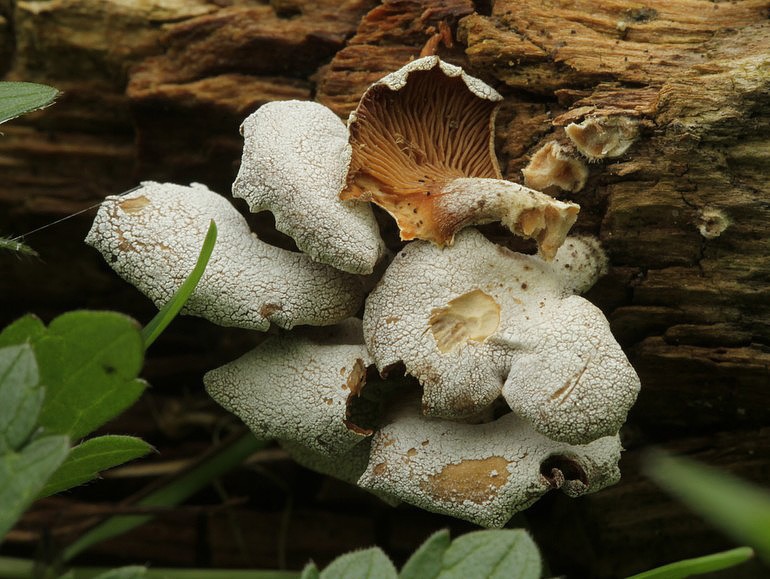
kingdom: Fungi
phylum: Basidiomycota
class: Agaricomycetes
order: Agaricales
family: Mycenaceae
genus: Panellus
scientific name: Panellus stipticus
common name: kliddet epaulethat
